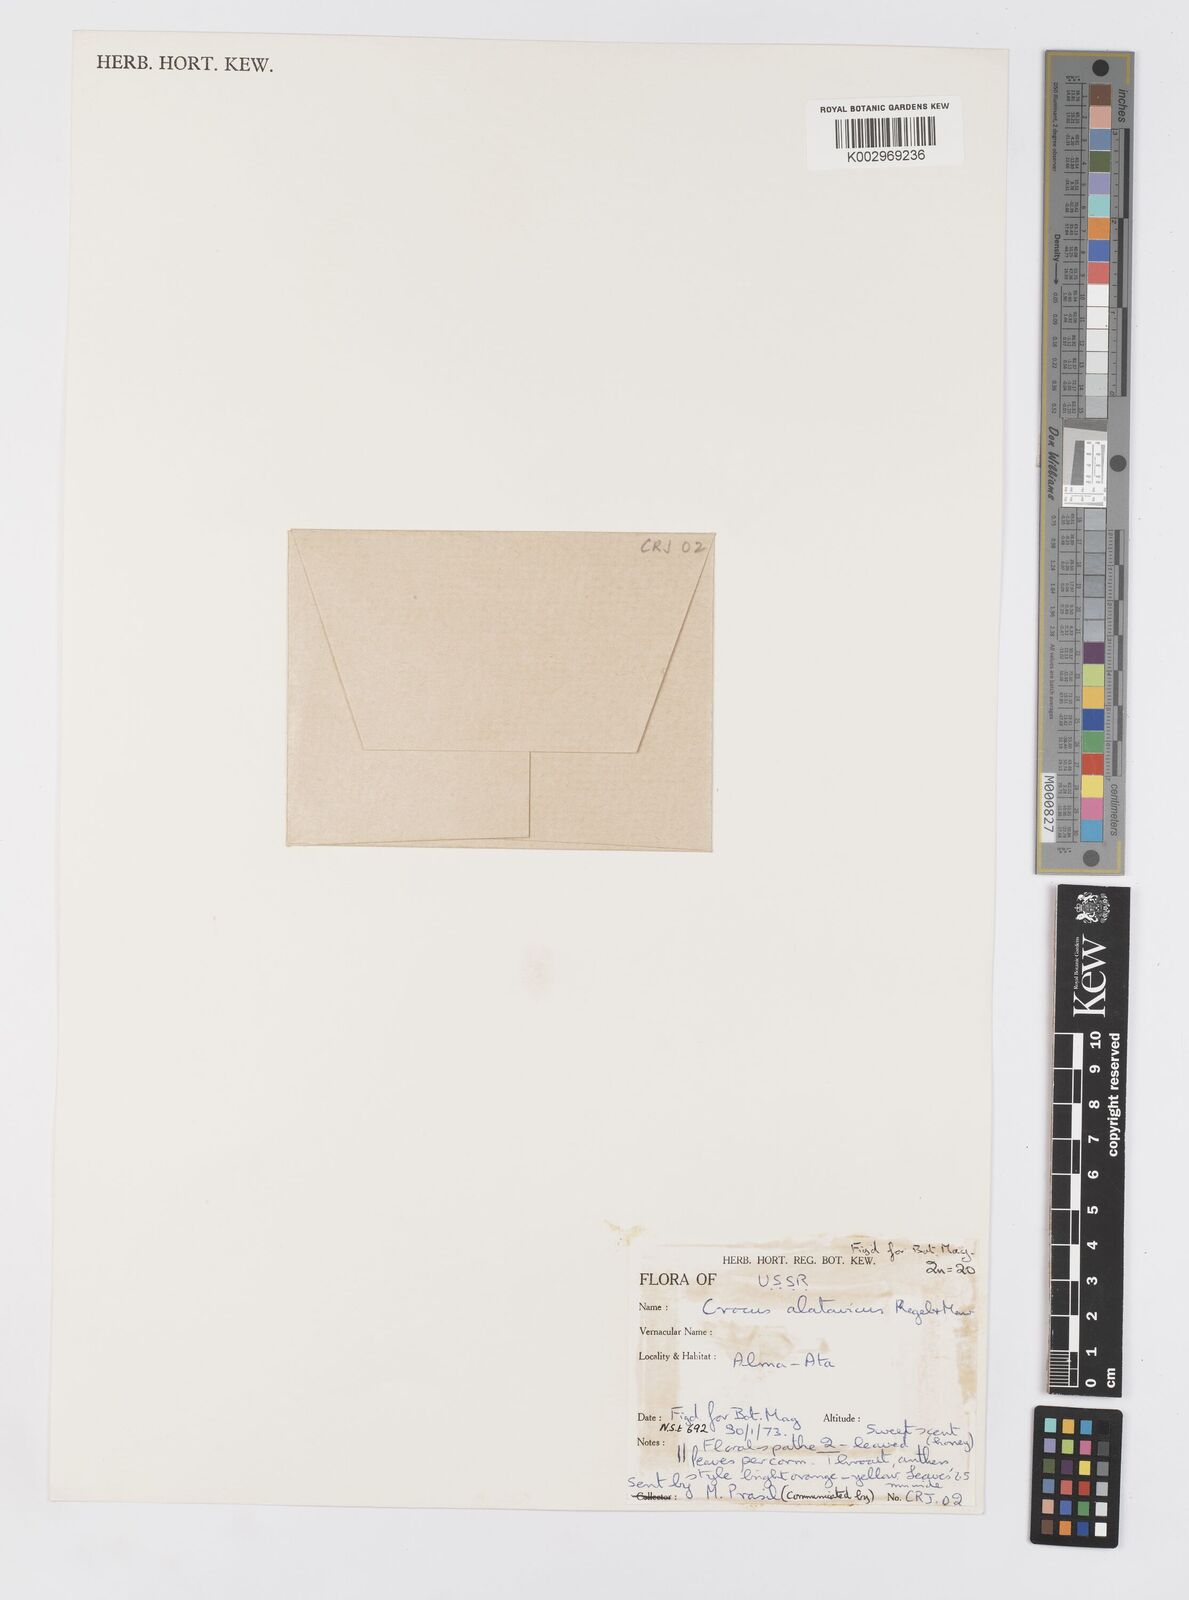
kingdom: Plantae
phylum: Tracheophyta
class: Liliopsida
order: Asparagales
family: Iridaceae
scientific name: Iridaceae
